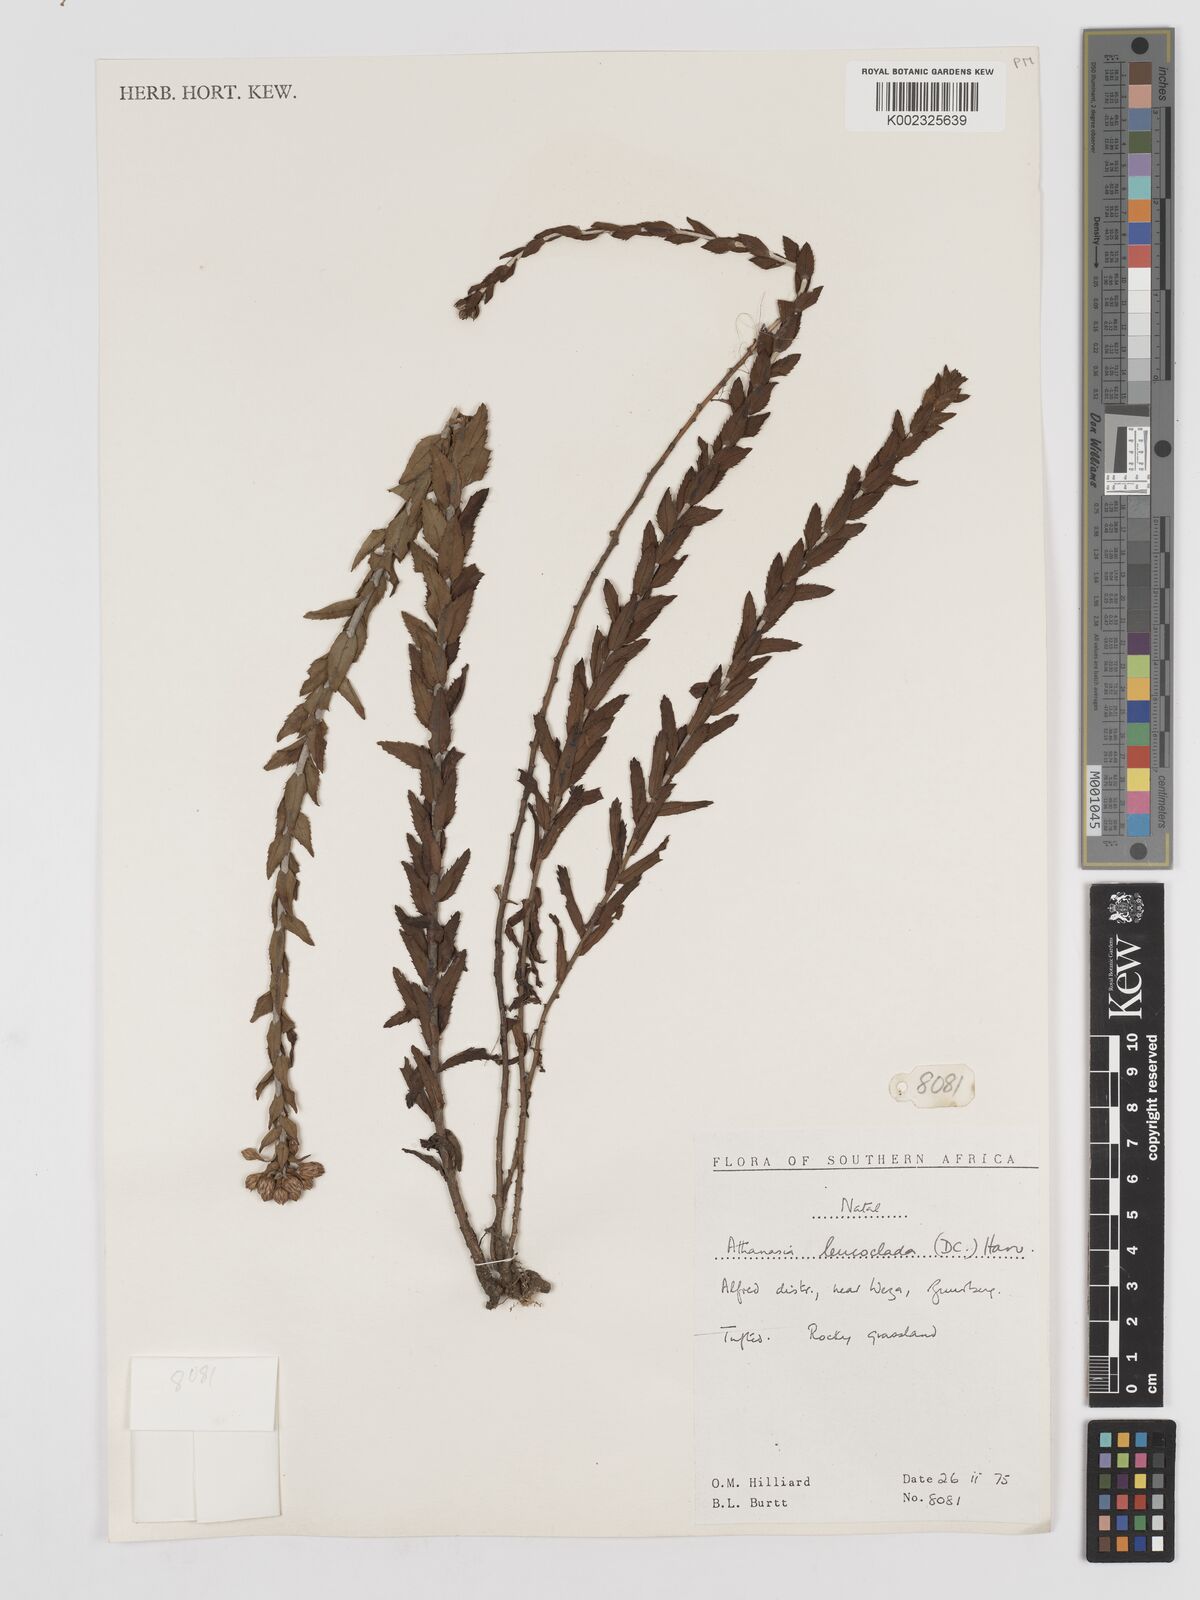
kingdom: Plantae
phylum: Tracheophyta
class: Magnoliopsida
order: Asterales
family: Asteraceae
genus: Inulanthera
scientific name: Inulanthera leucoclada
